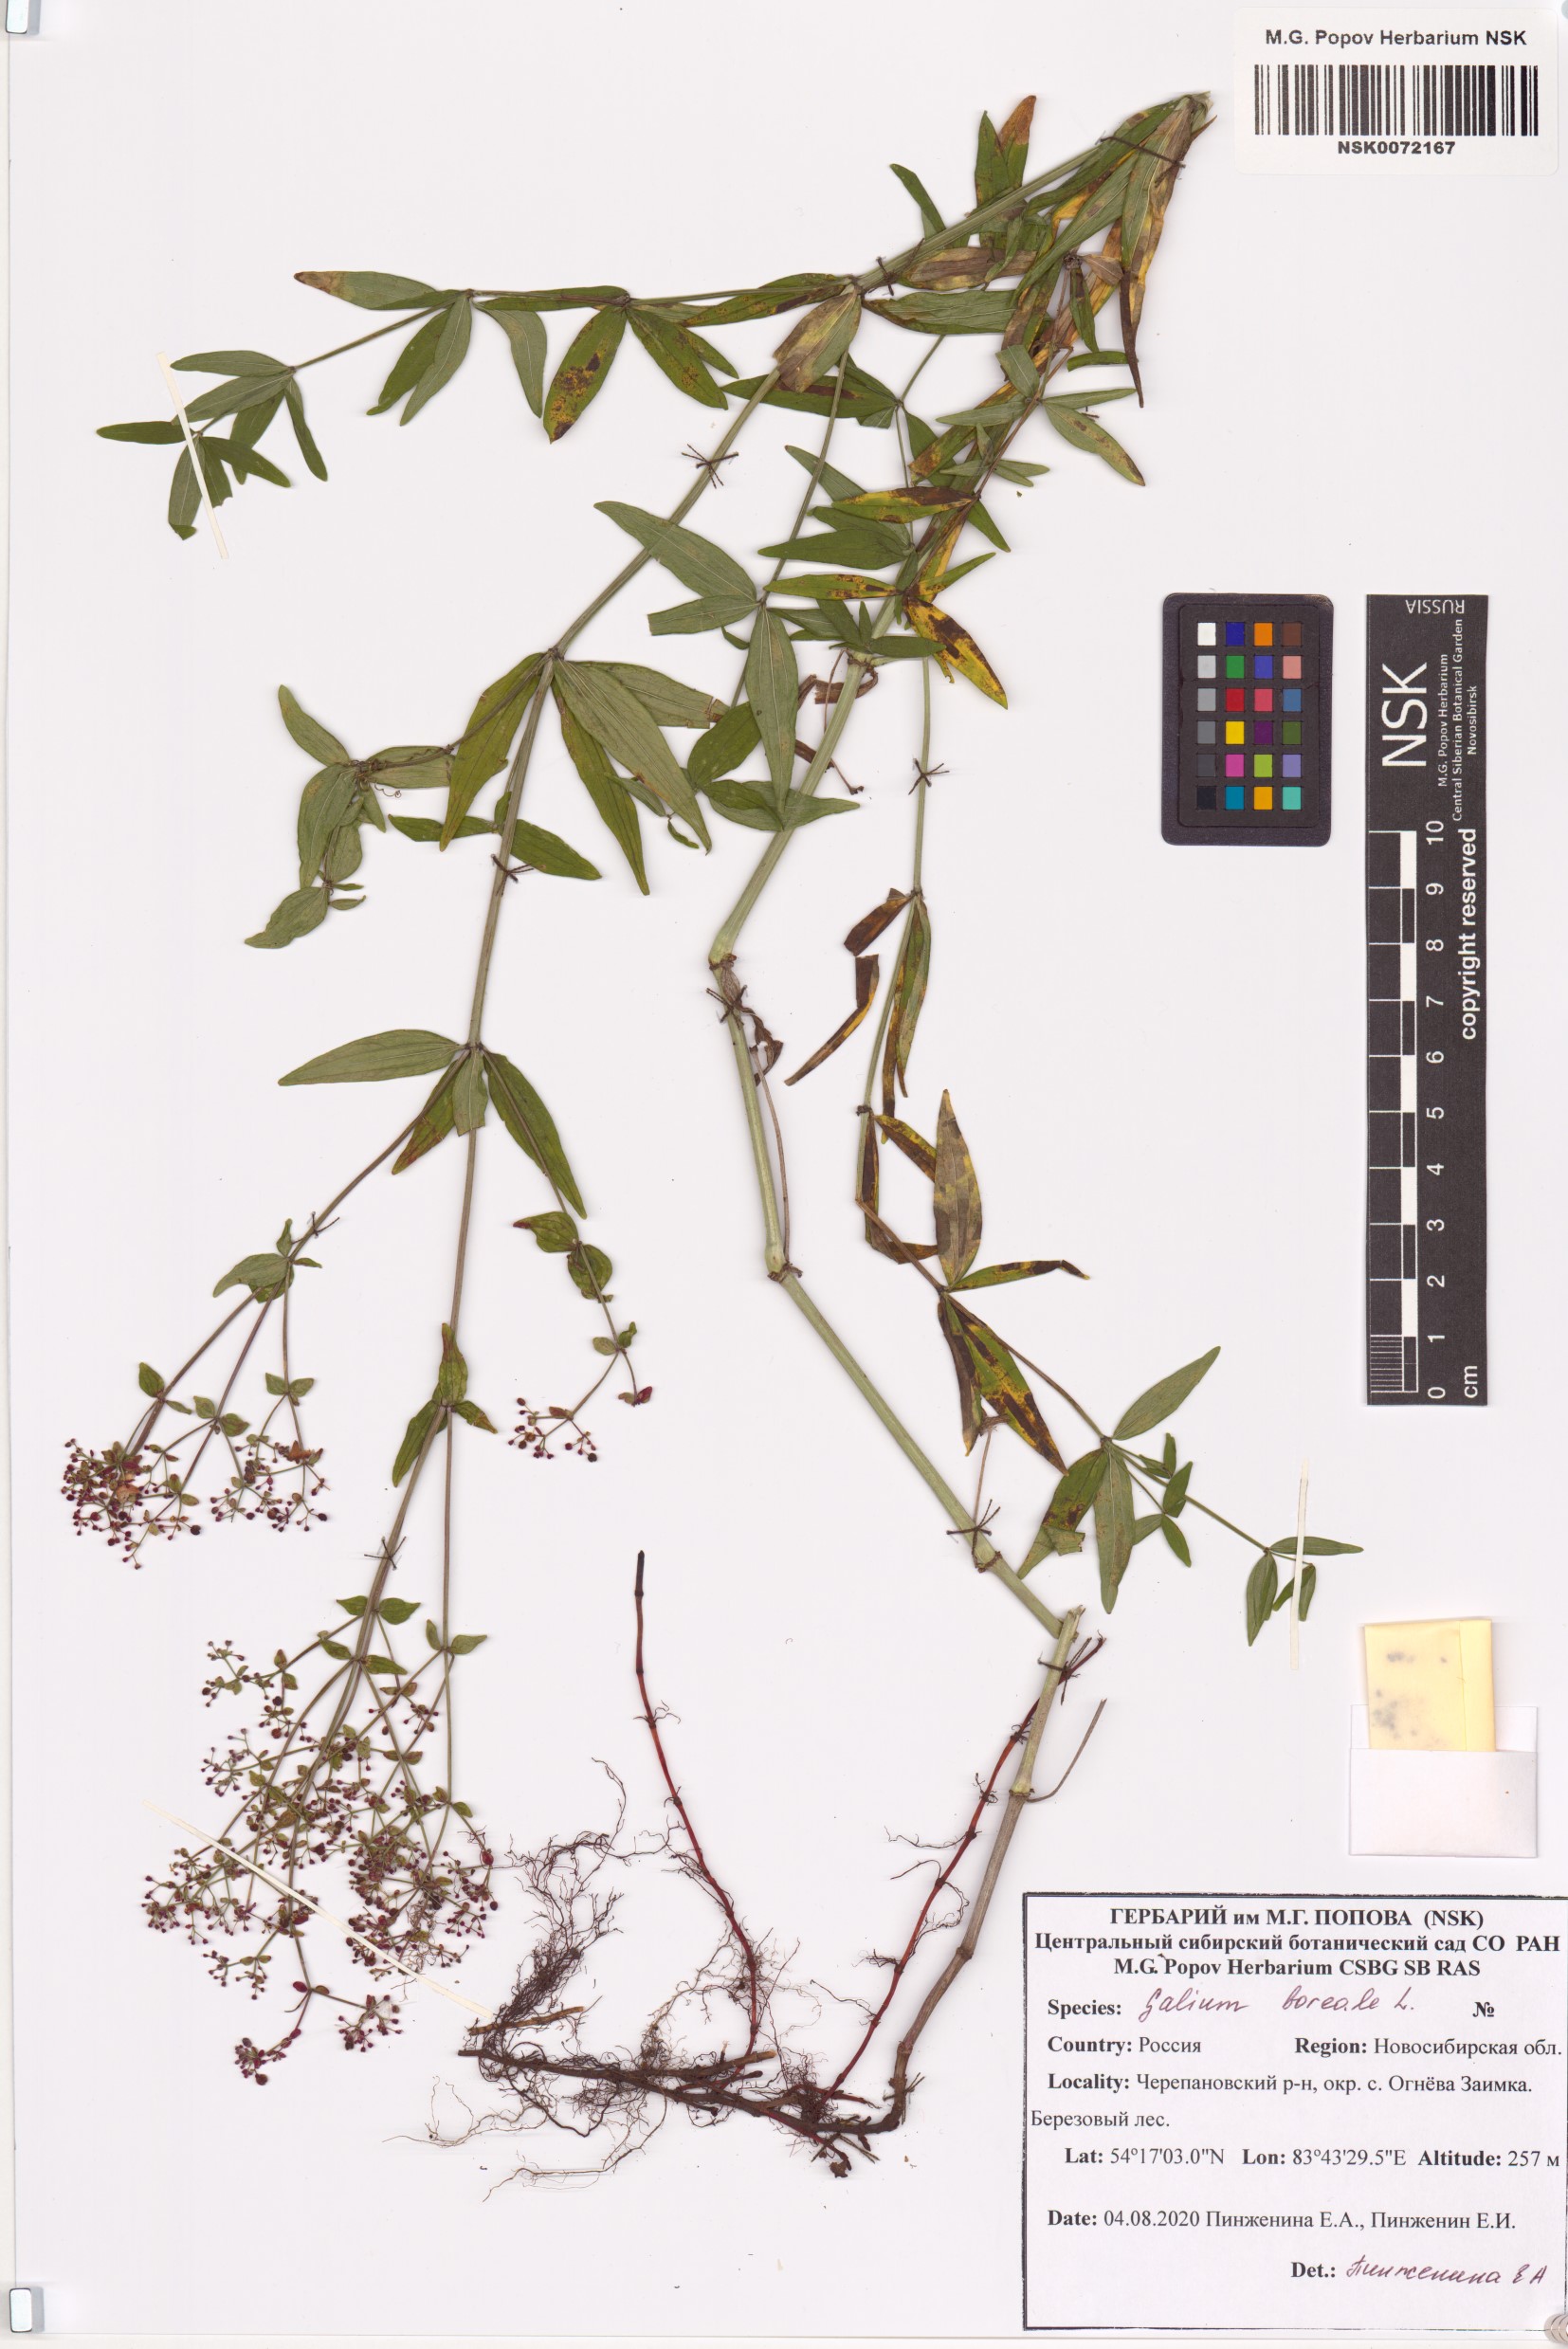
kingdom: Plantae
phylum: Tracheophyta
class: Magnoliopsida
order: Gentianales
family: Rubiaceae
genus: Galium
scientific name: Galium boreale
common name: Northern bedstraw
